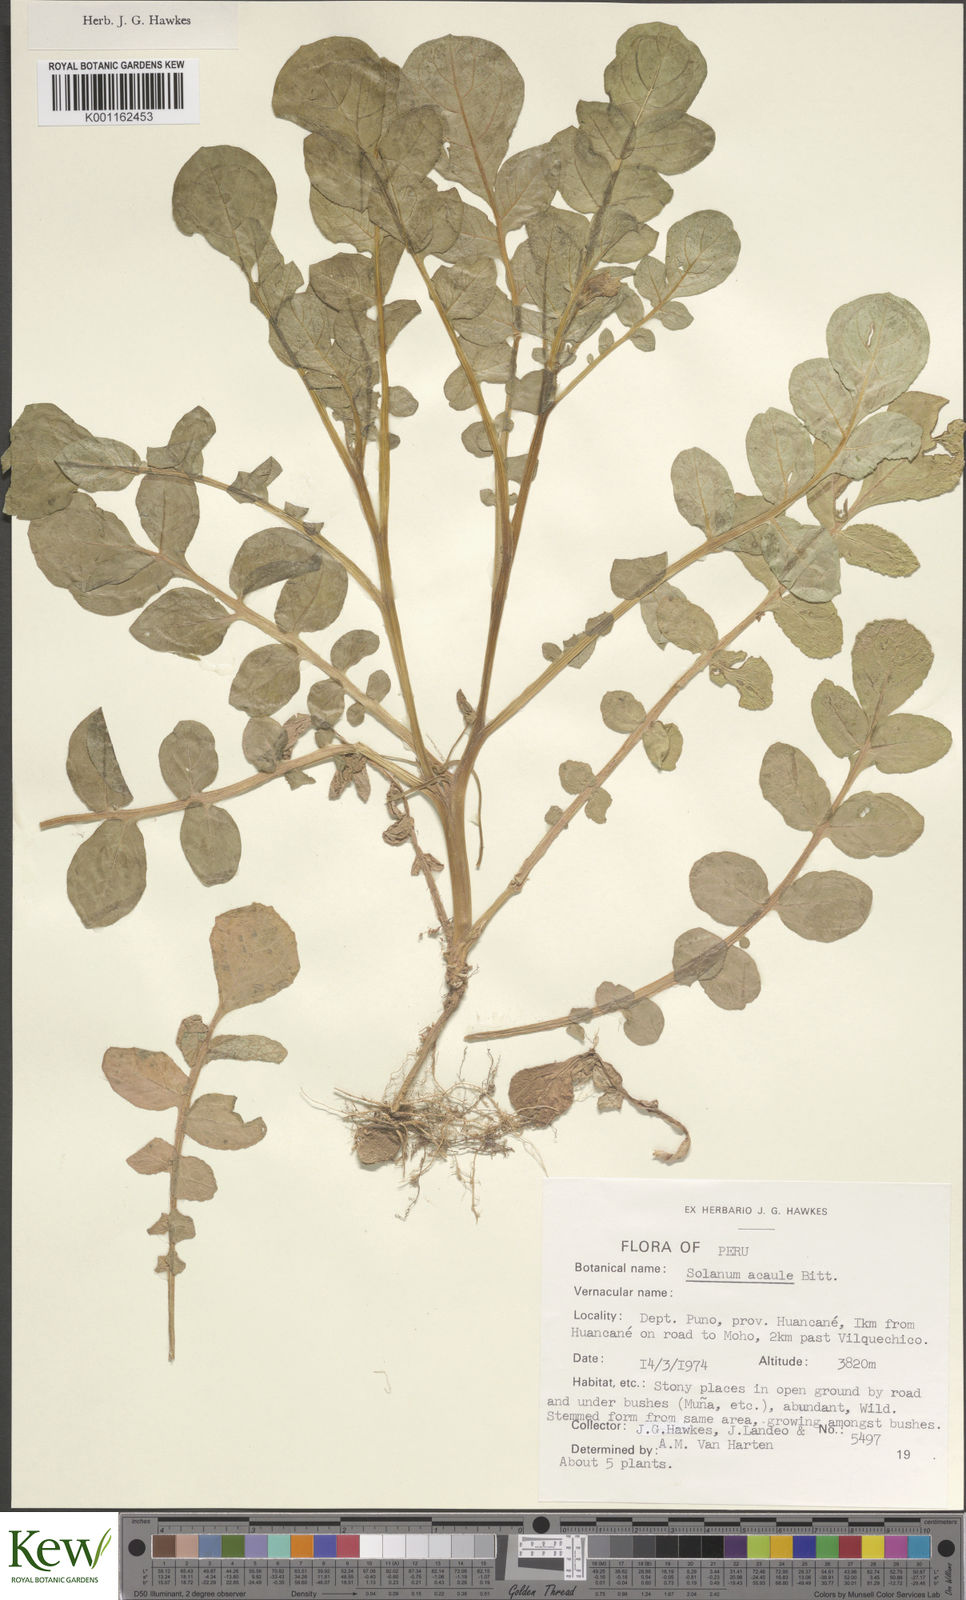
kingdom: Plantae
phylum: Tracheophyta
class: Magnoliopsida
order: Solanales
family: Solanaceae
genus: Solanum
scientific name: Solanum acaule
